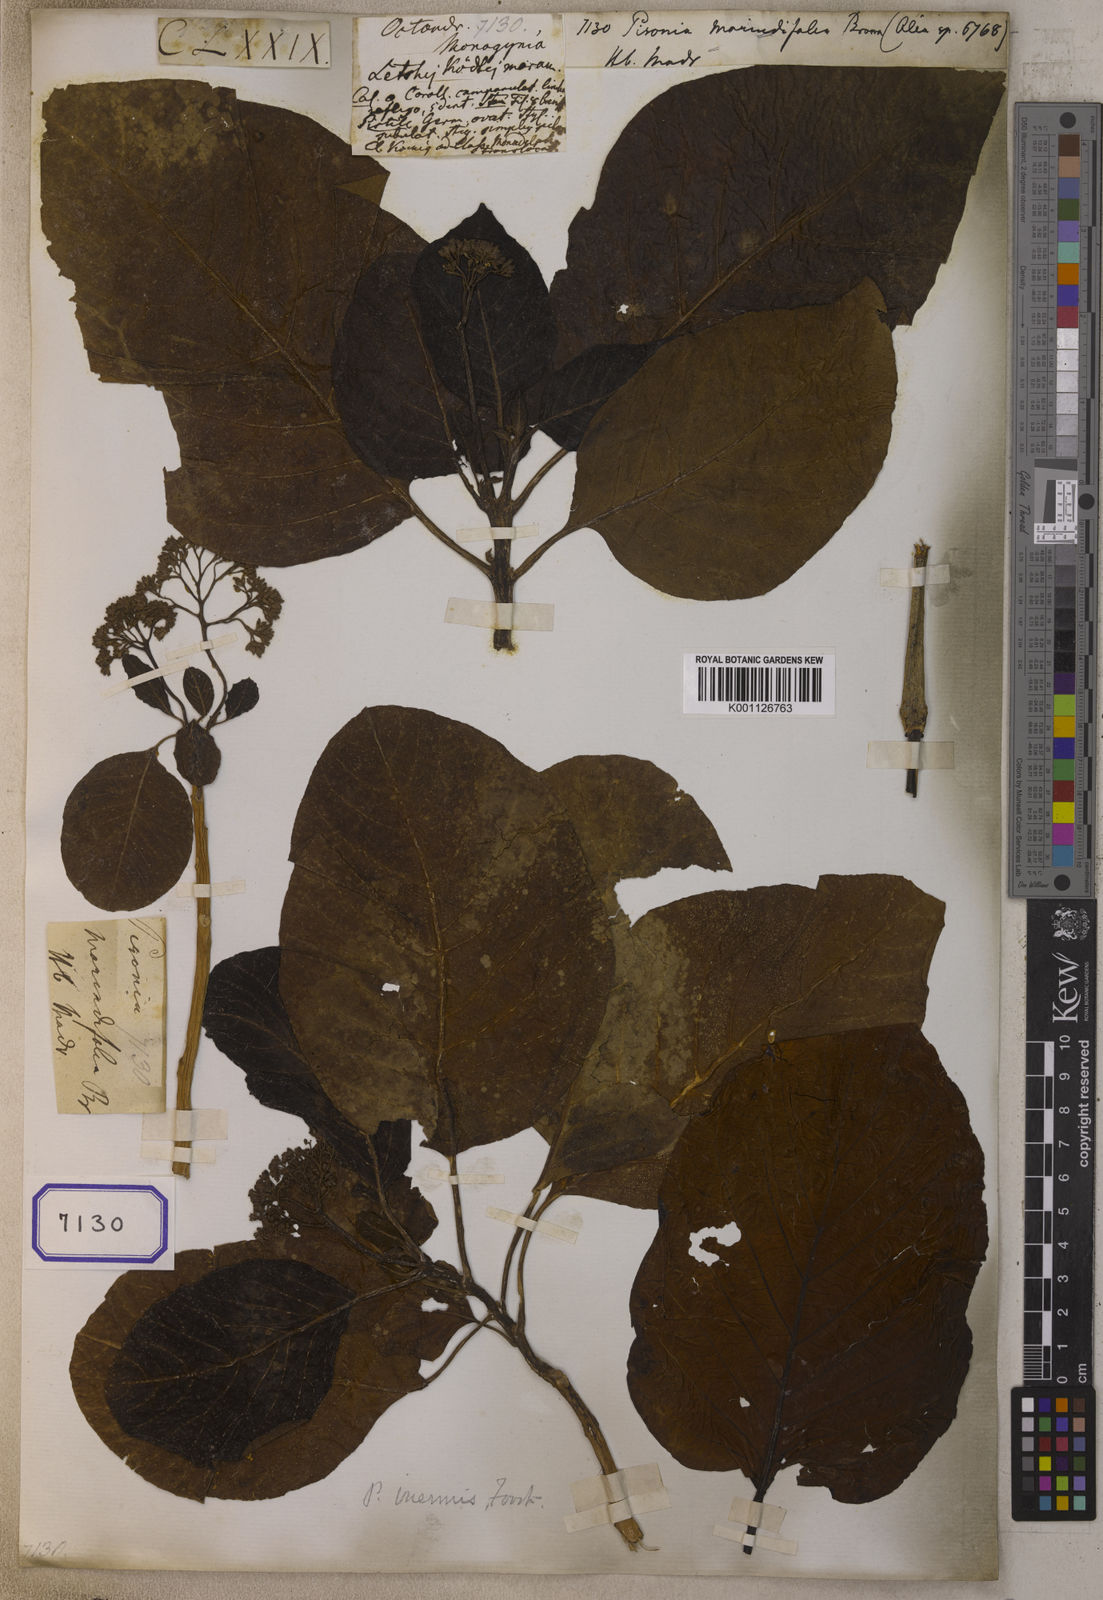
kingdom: Plantae
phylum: Tracheophyta
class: Magnoliopsida
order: Caryophyllales
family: Nyctaginaceae
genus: Ceodes
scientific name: Ceodes grandis
